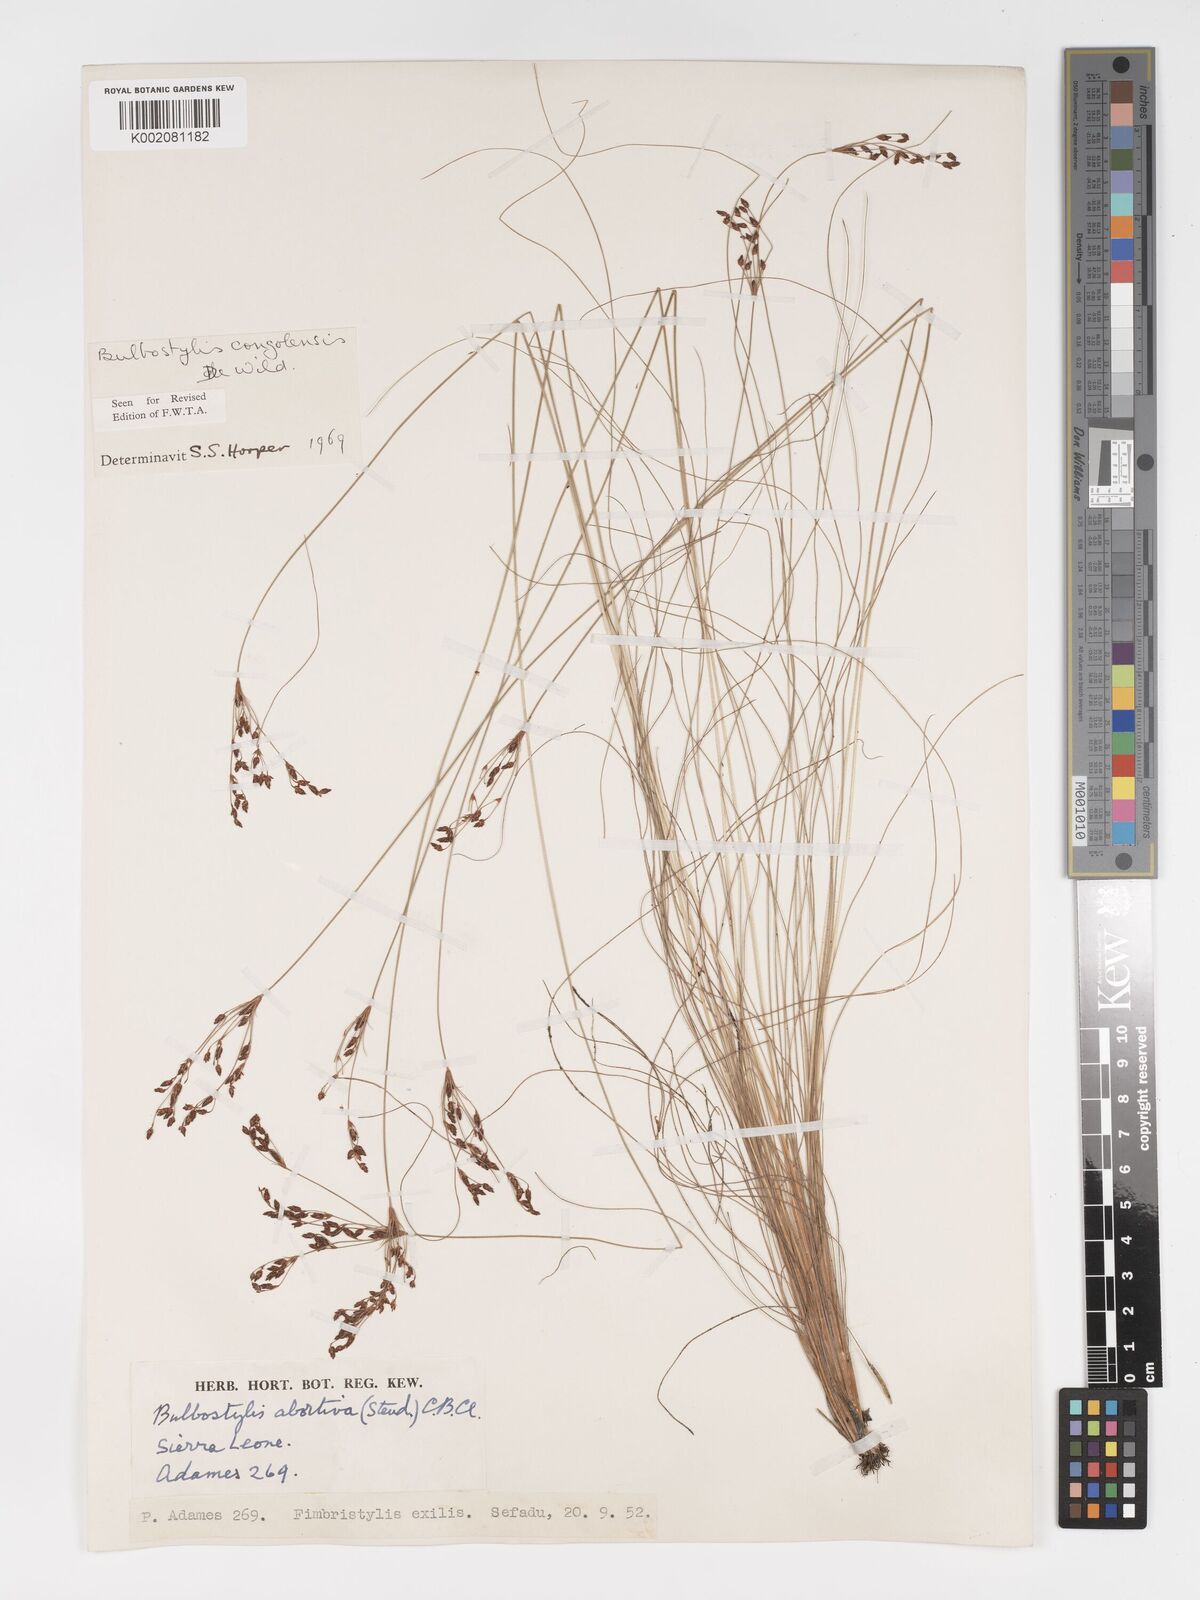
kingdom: Plantae
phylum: Tracheophyta
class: Liliopsida
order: Poales
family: Cyperaceae
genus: Bulbostylis
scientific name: Bulbostylis congolensis
